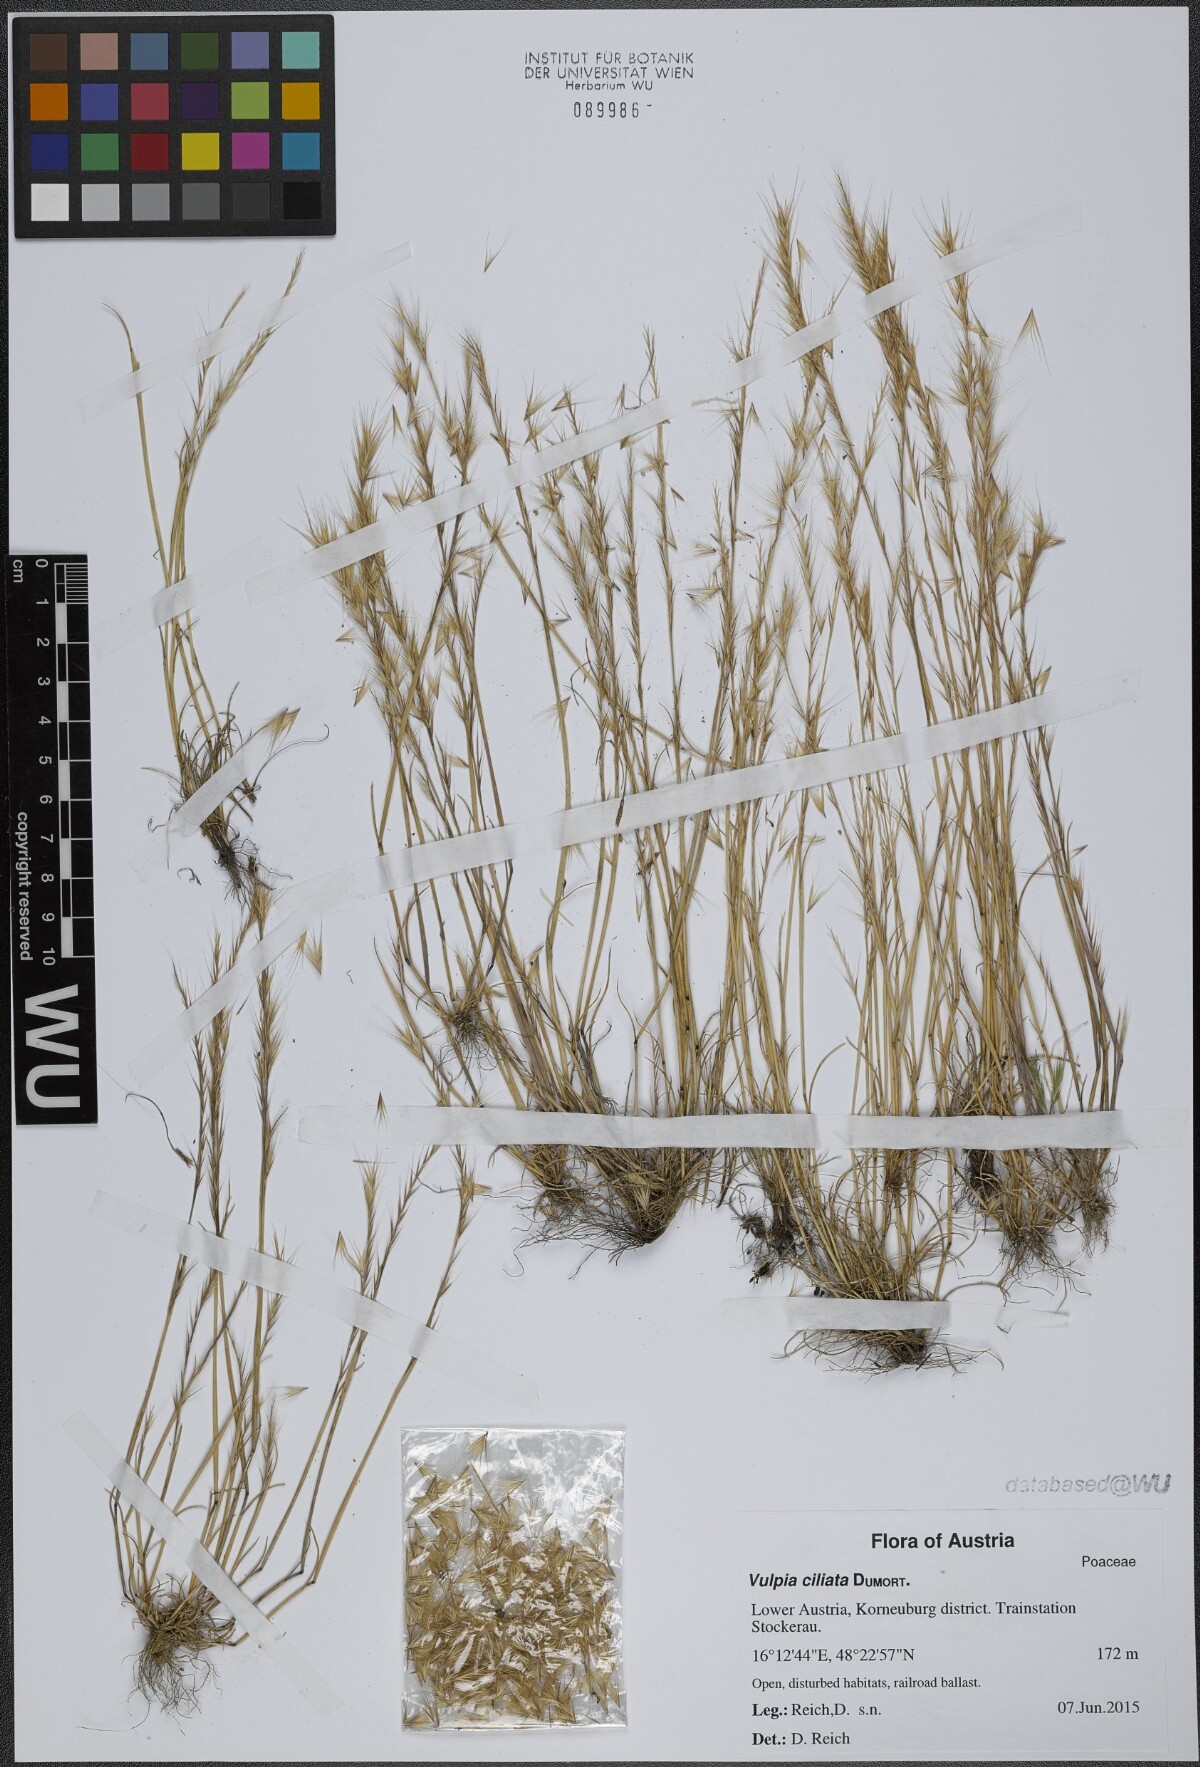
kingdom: Plantae
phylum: Tracheophyta
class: Liliopsida
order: Poales
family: Poaceae
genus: Festuca
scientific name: Festuca ambigua
